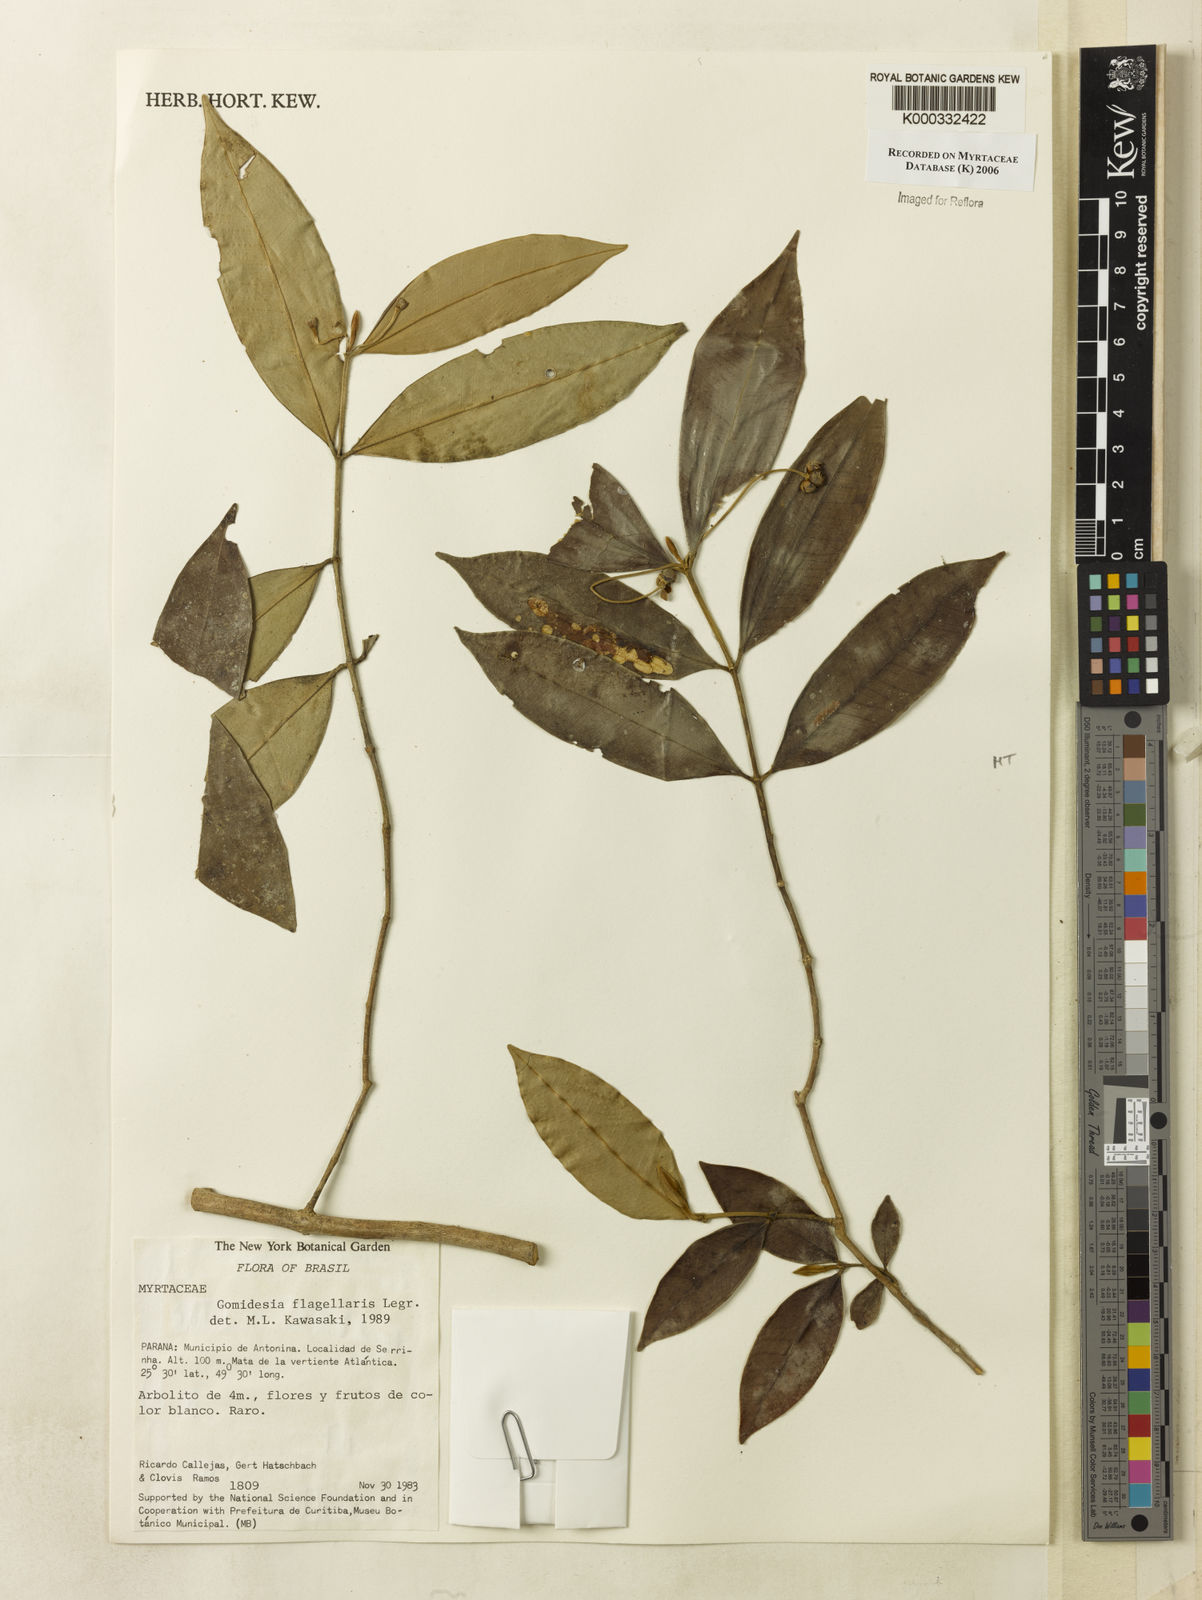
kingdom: Plantae
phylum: Tracheophyta
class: Magnoliopsida
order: Myrtales
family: Myrtaceae
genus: Myrcia
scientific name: Myrcia flagellaris
